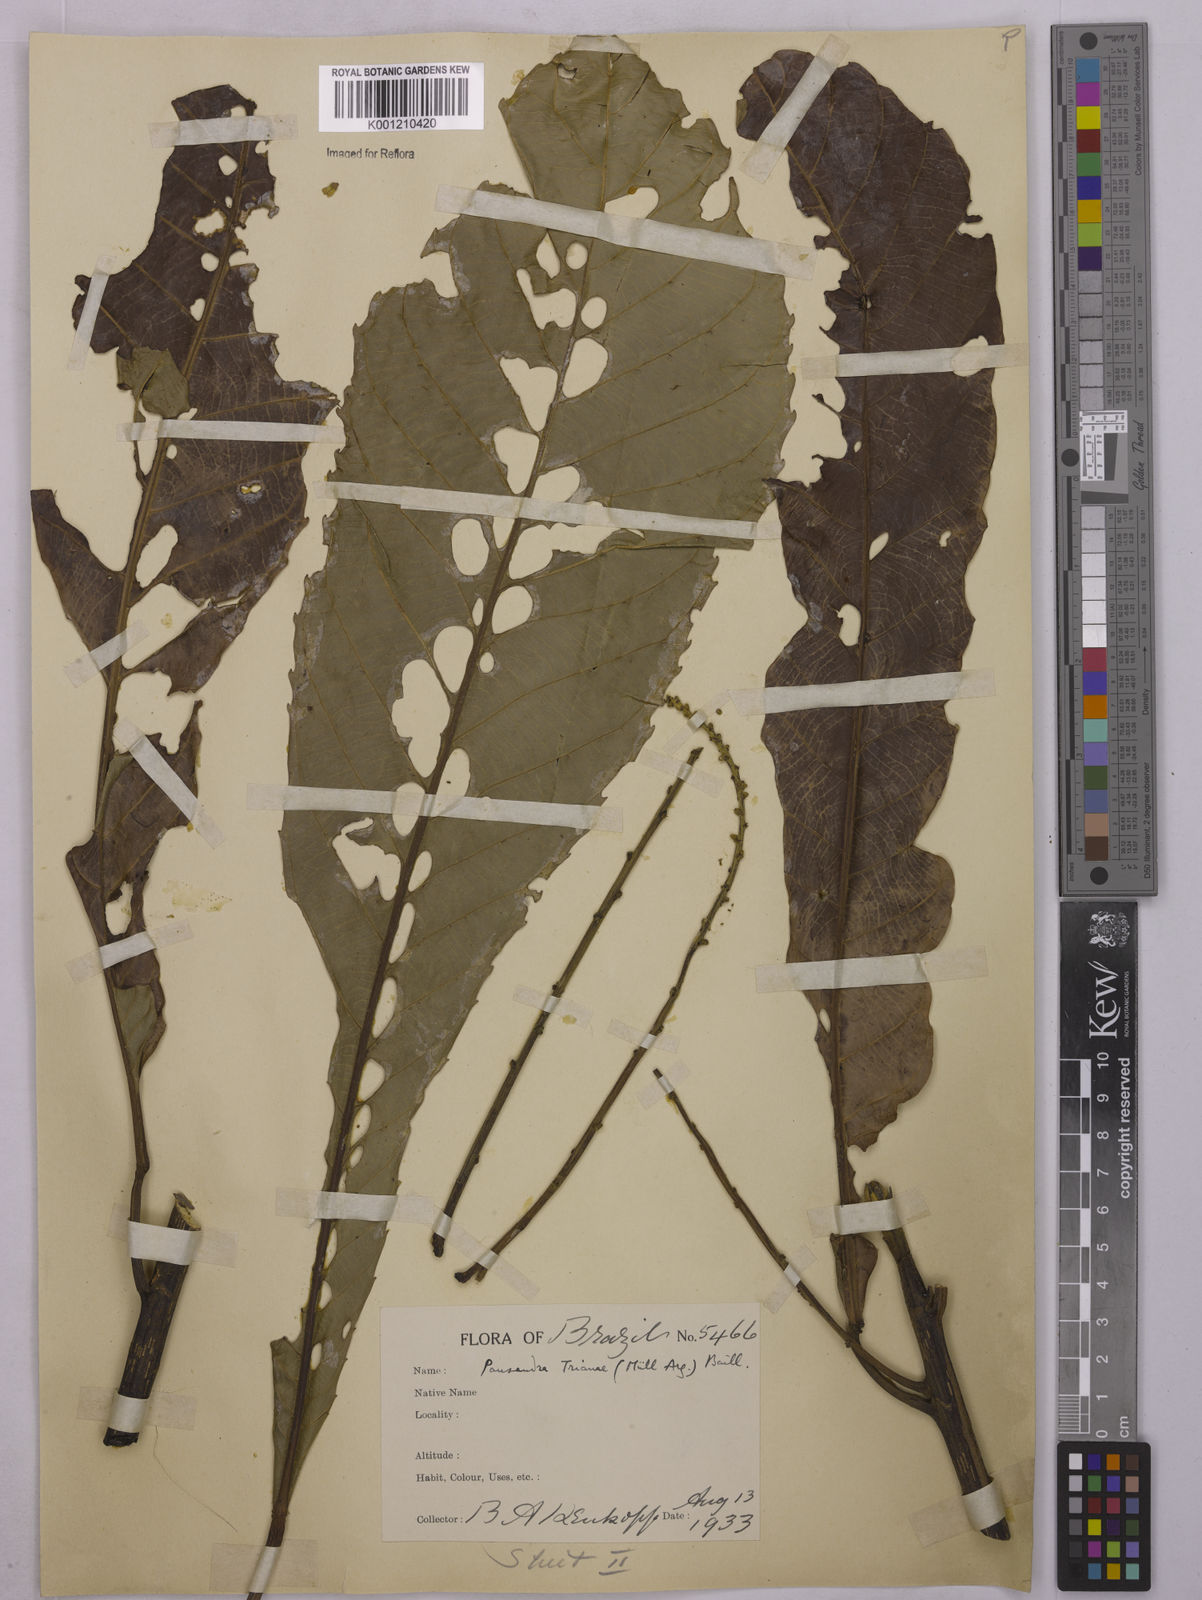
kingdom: Plantae
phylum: Tracheophyta
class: Magnoliopsida
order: Malpighiales
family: Euphorbiaceae
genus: Pausandra
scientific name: Pausandra
